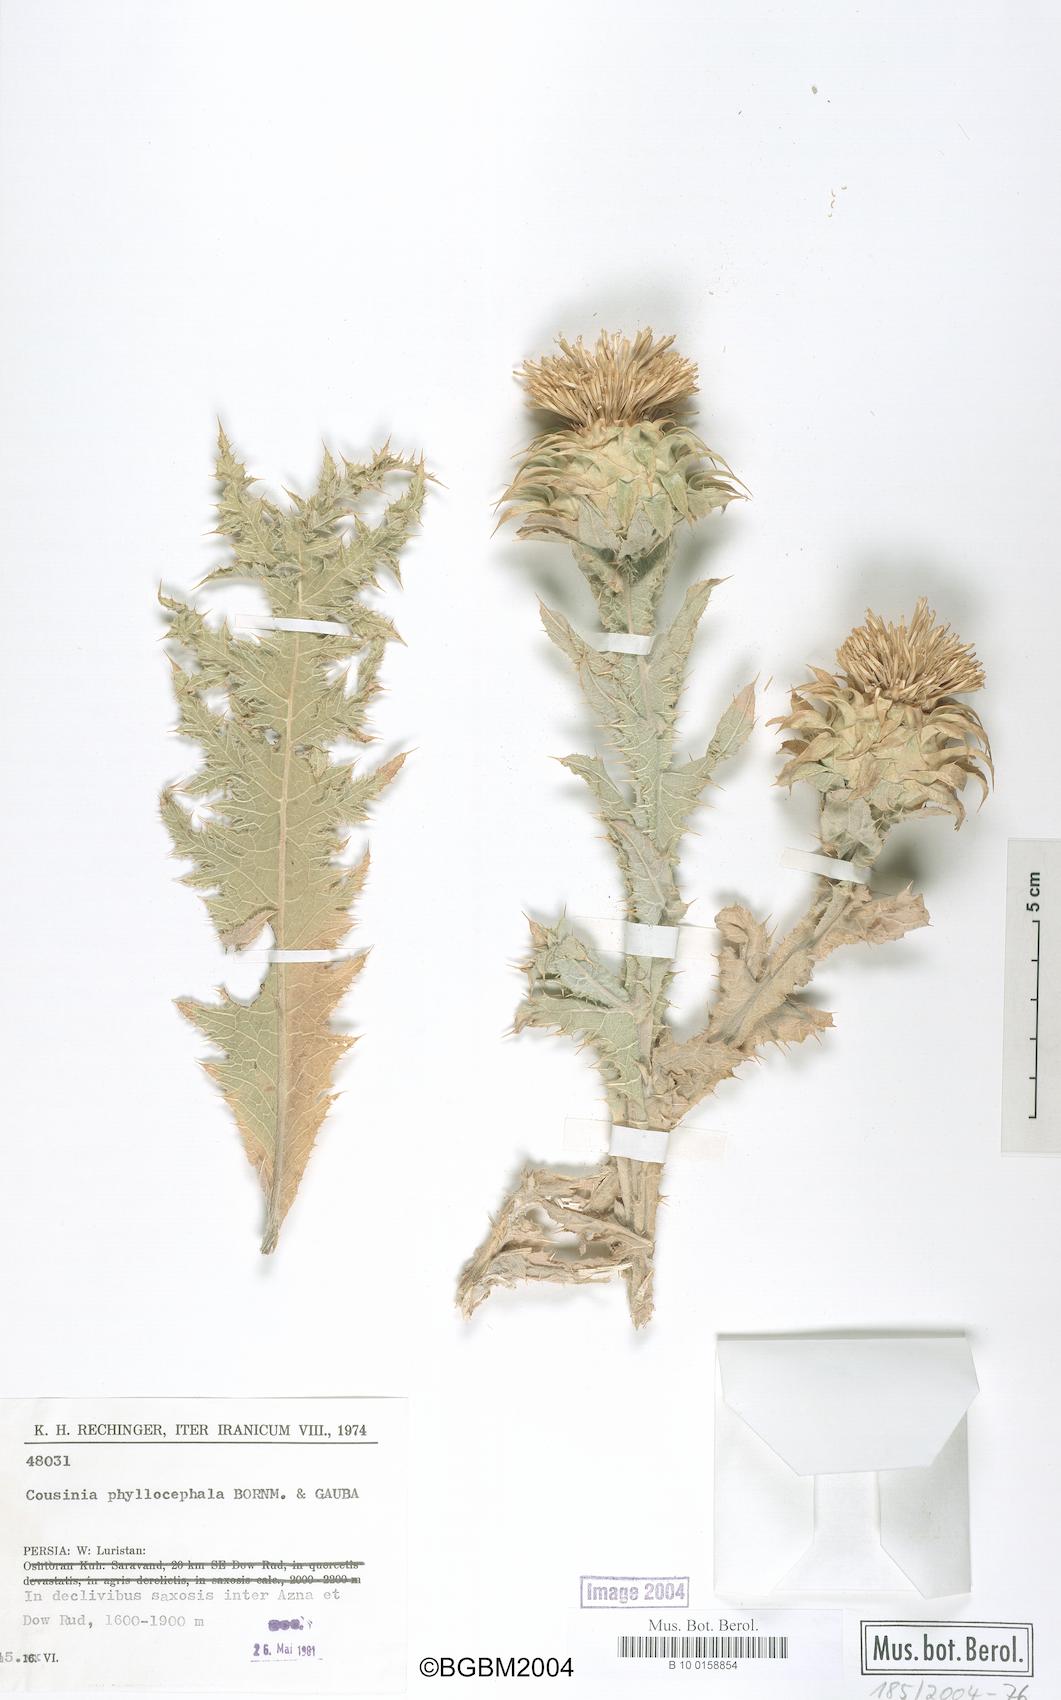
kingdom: Plantae
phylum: Tracheophyta
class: Magnoliopsida
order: Asterales
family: Asteraceae
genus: Cousinia
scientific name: Cousinia phyllocephala
